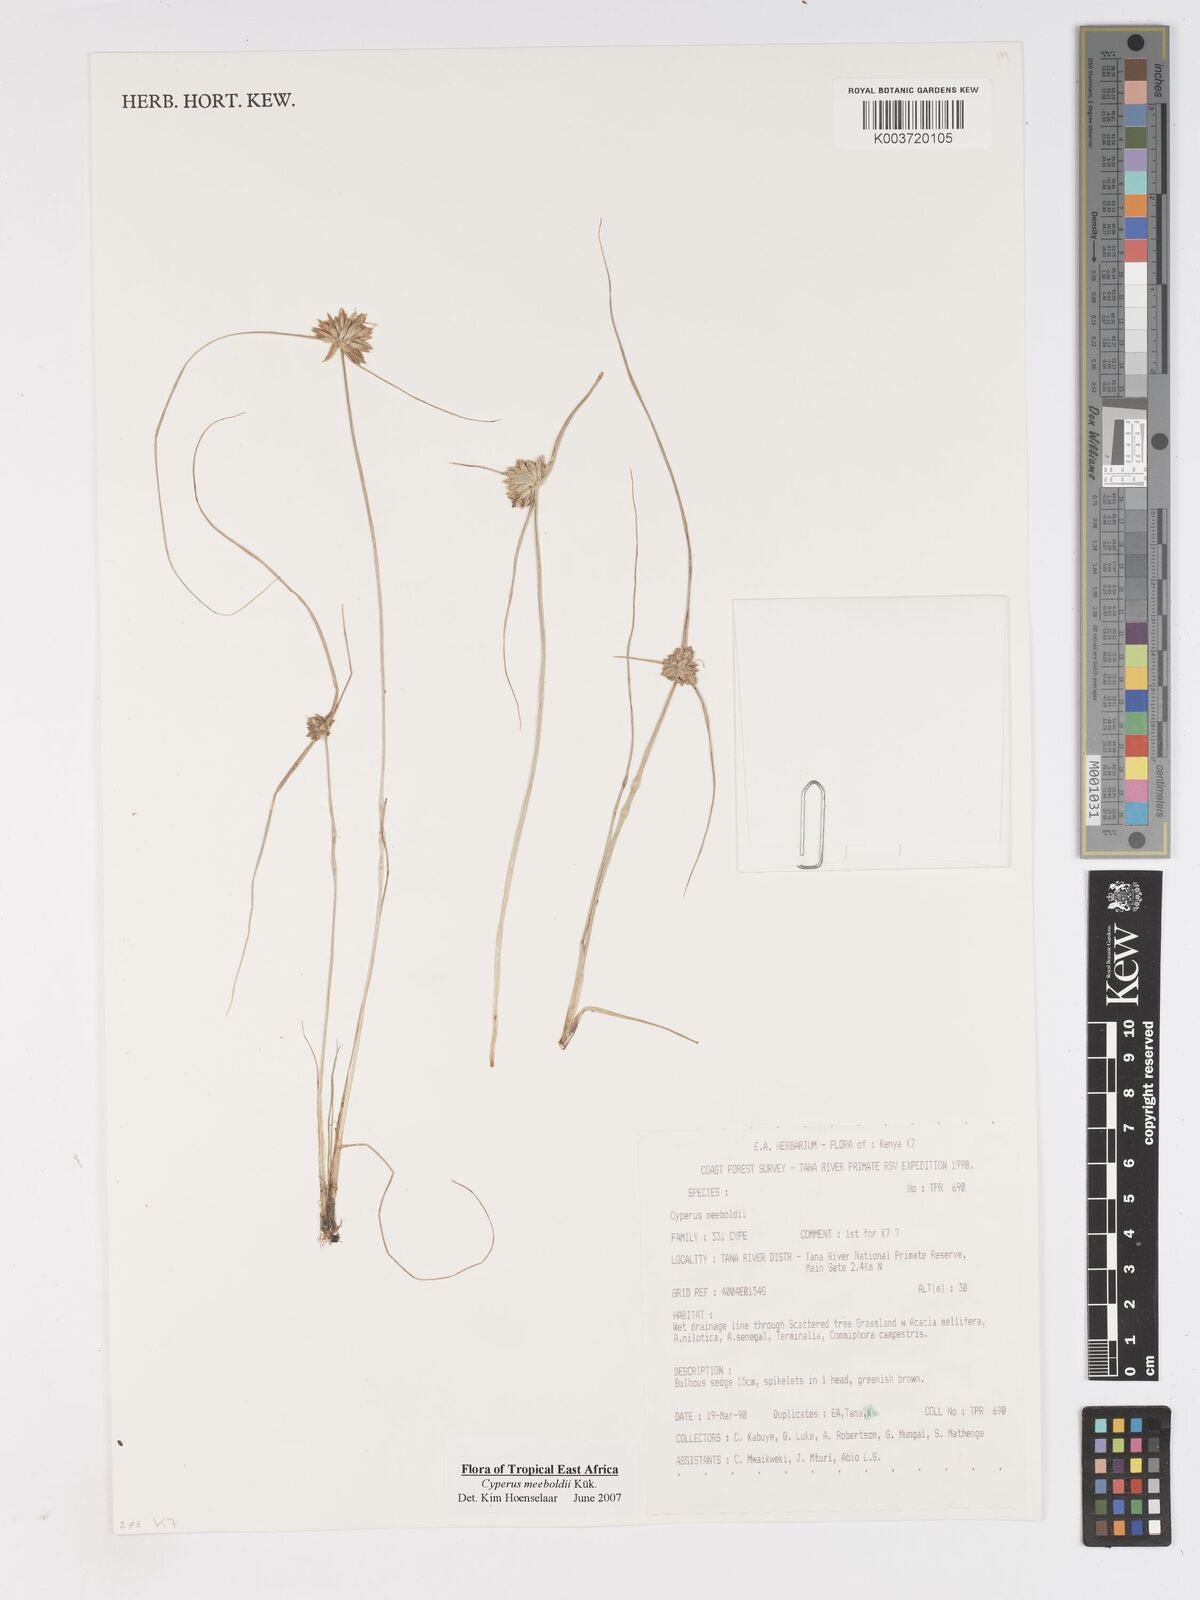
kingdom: Plantae
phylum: Tracheophyta
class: Liliopsida
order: Poales
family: Cyperaceae
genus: Cyperus
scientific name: Cyperus meeboldii
